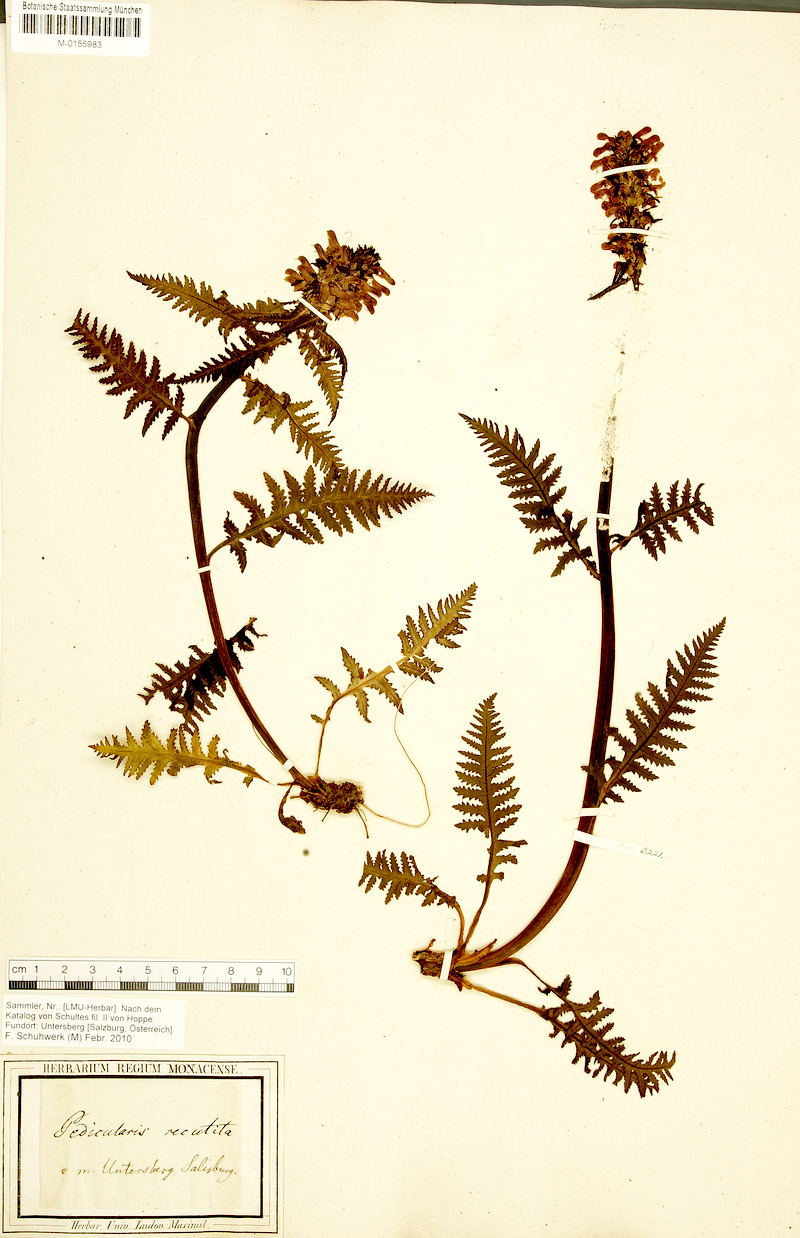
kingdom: Plantae
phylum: Tracheophyta
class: Magnoliopsida
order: Lamiales
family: Orobanchaceae
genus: Pedicularis
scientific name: Pedicularis recutita
